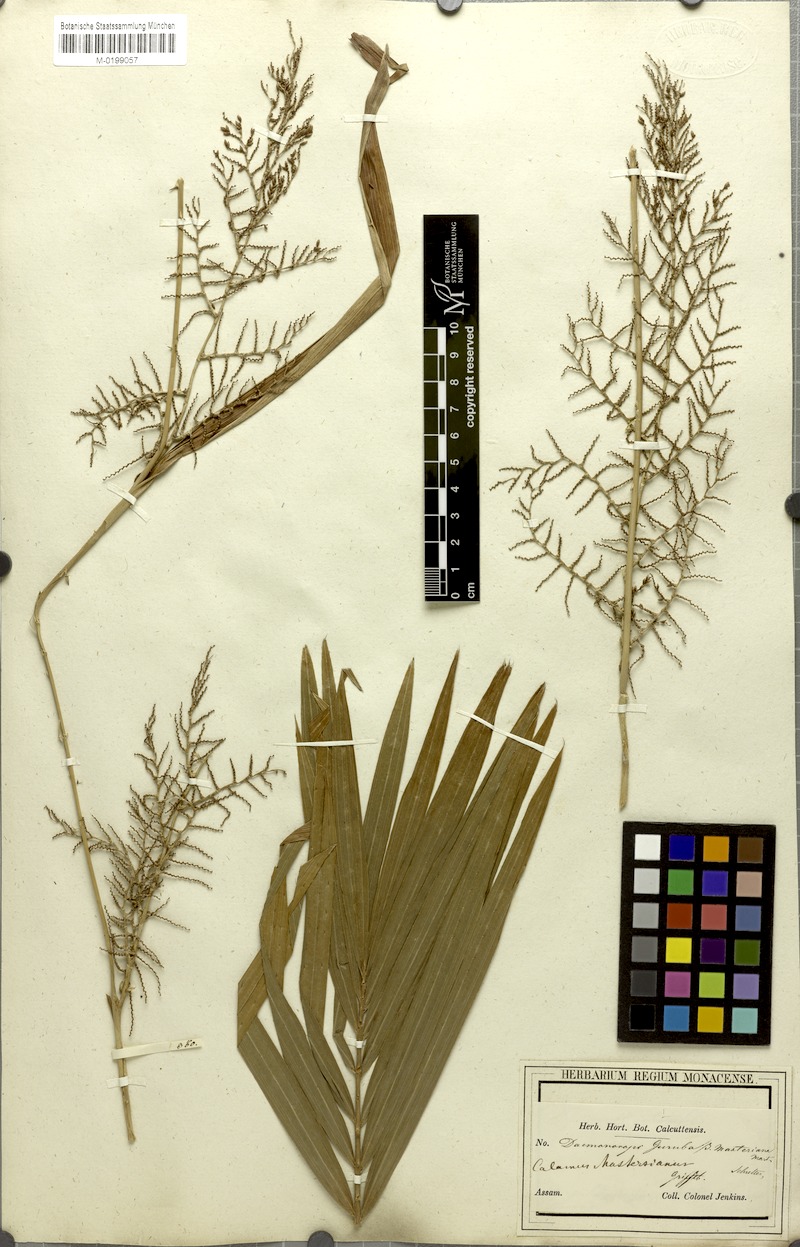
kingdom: Plantae
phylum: Tracheophyta
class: Liliopsida
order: Arecales
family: Arecaceae
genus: Calamus
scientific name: Calamus guruba
